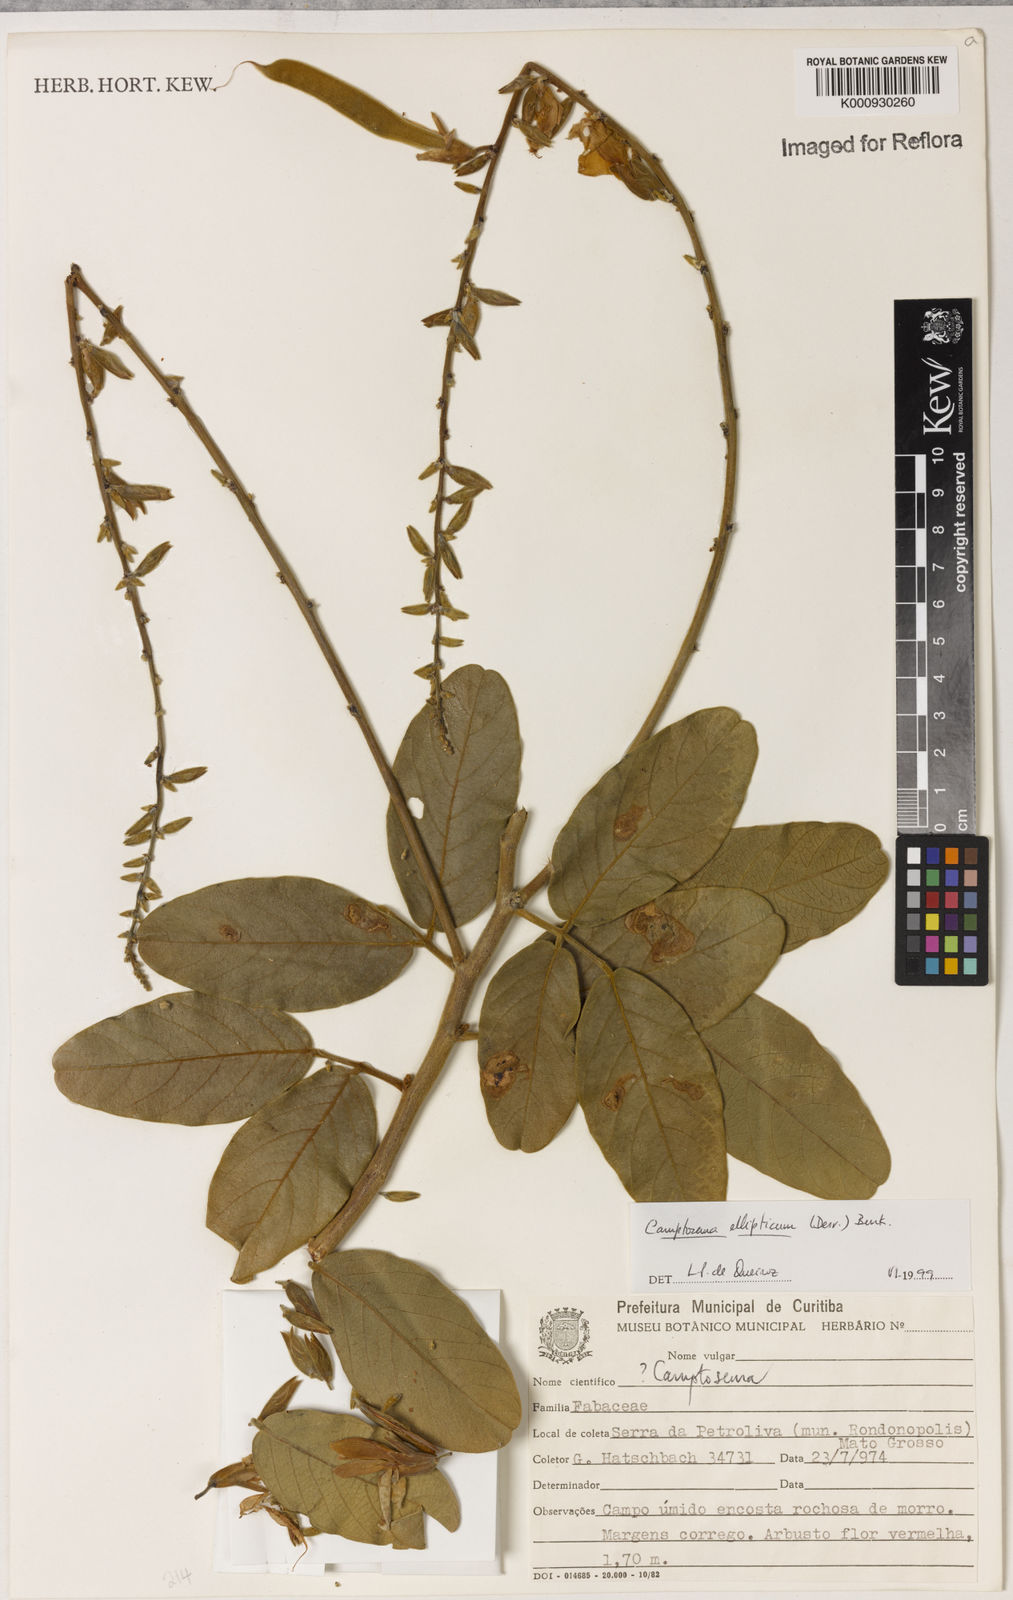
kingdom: Plantae
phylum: Tracheophyta
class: Magnoliopsida
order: Fabales
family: Fabaceae
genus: Camptosema
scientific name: Camptosema
